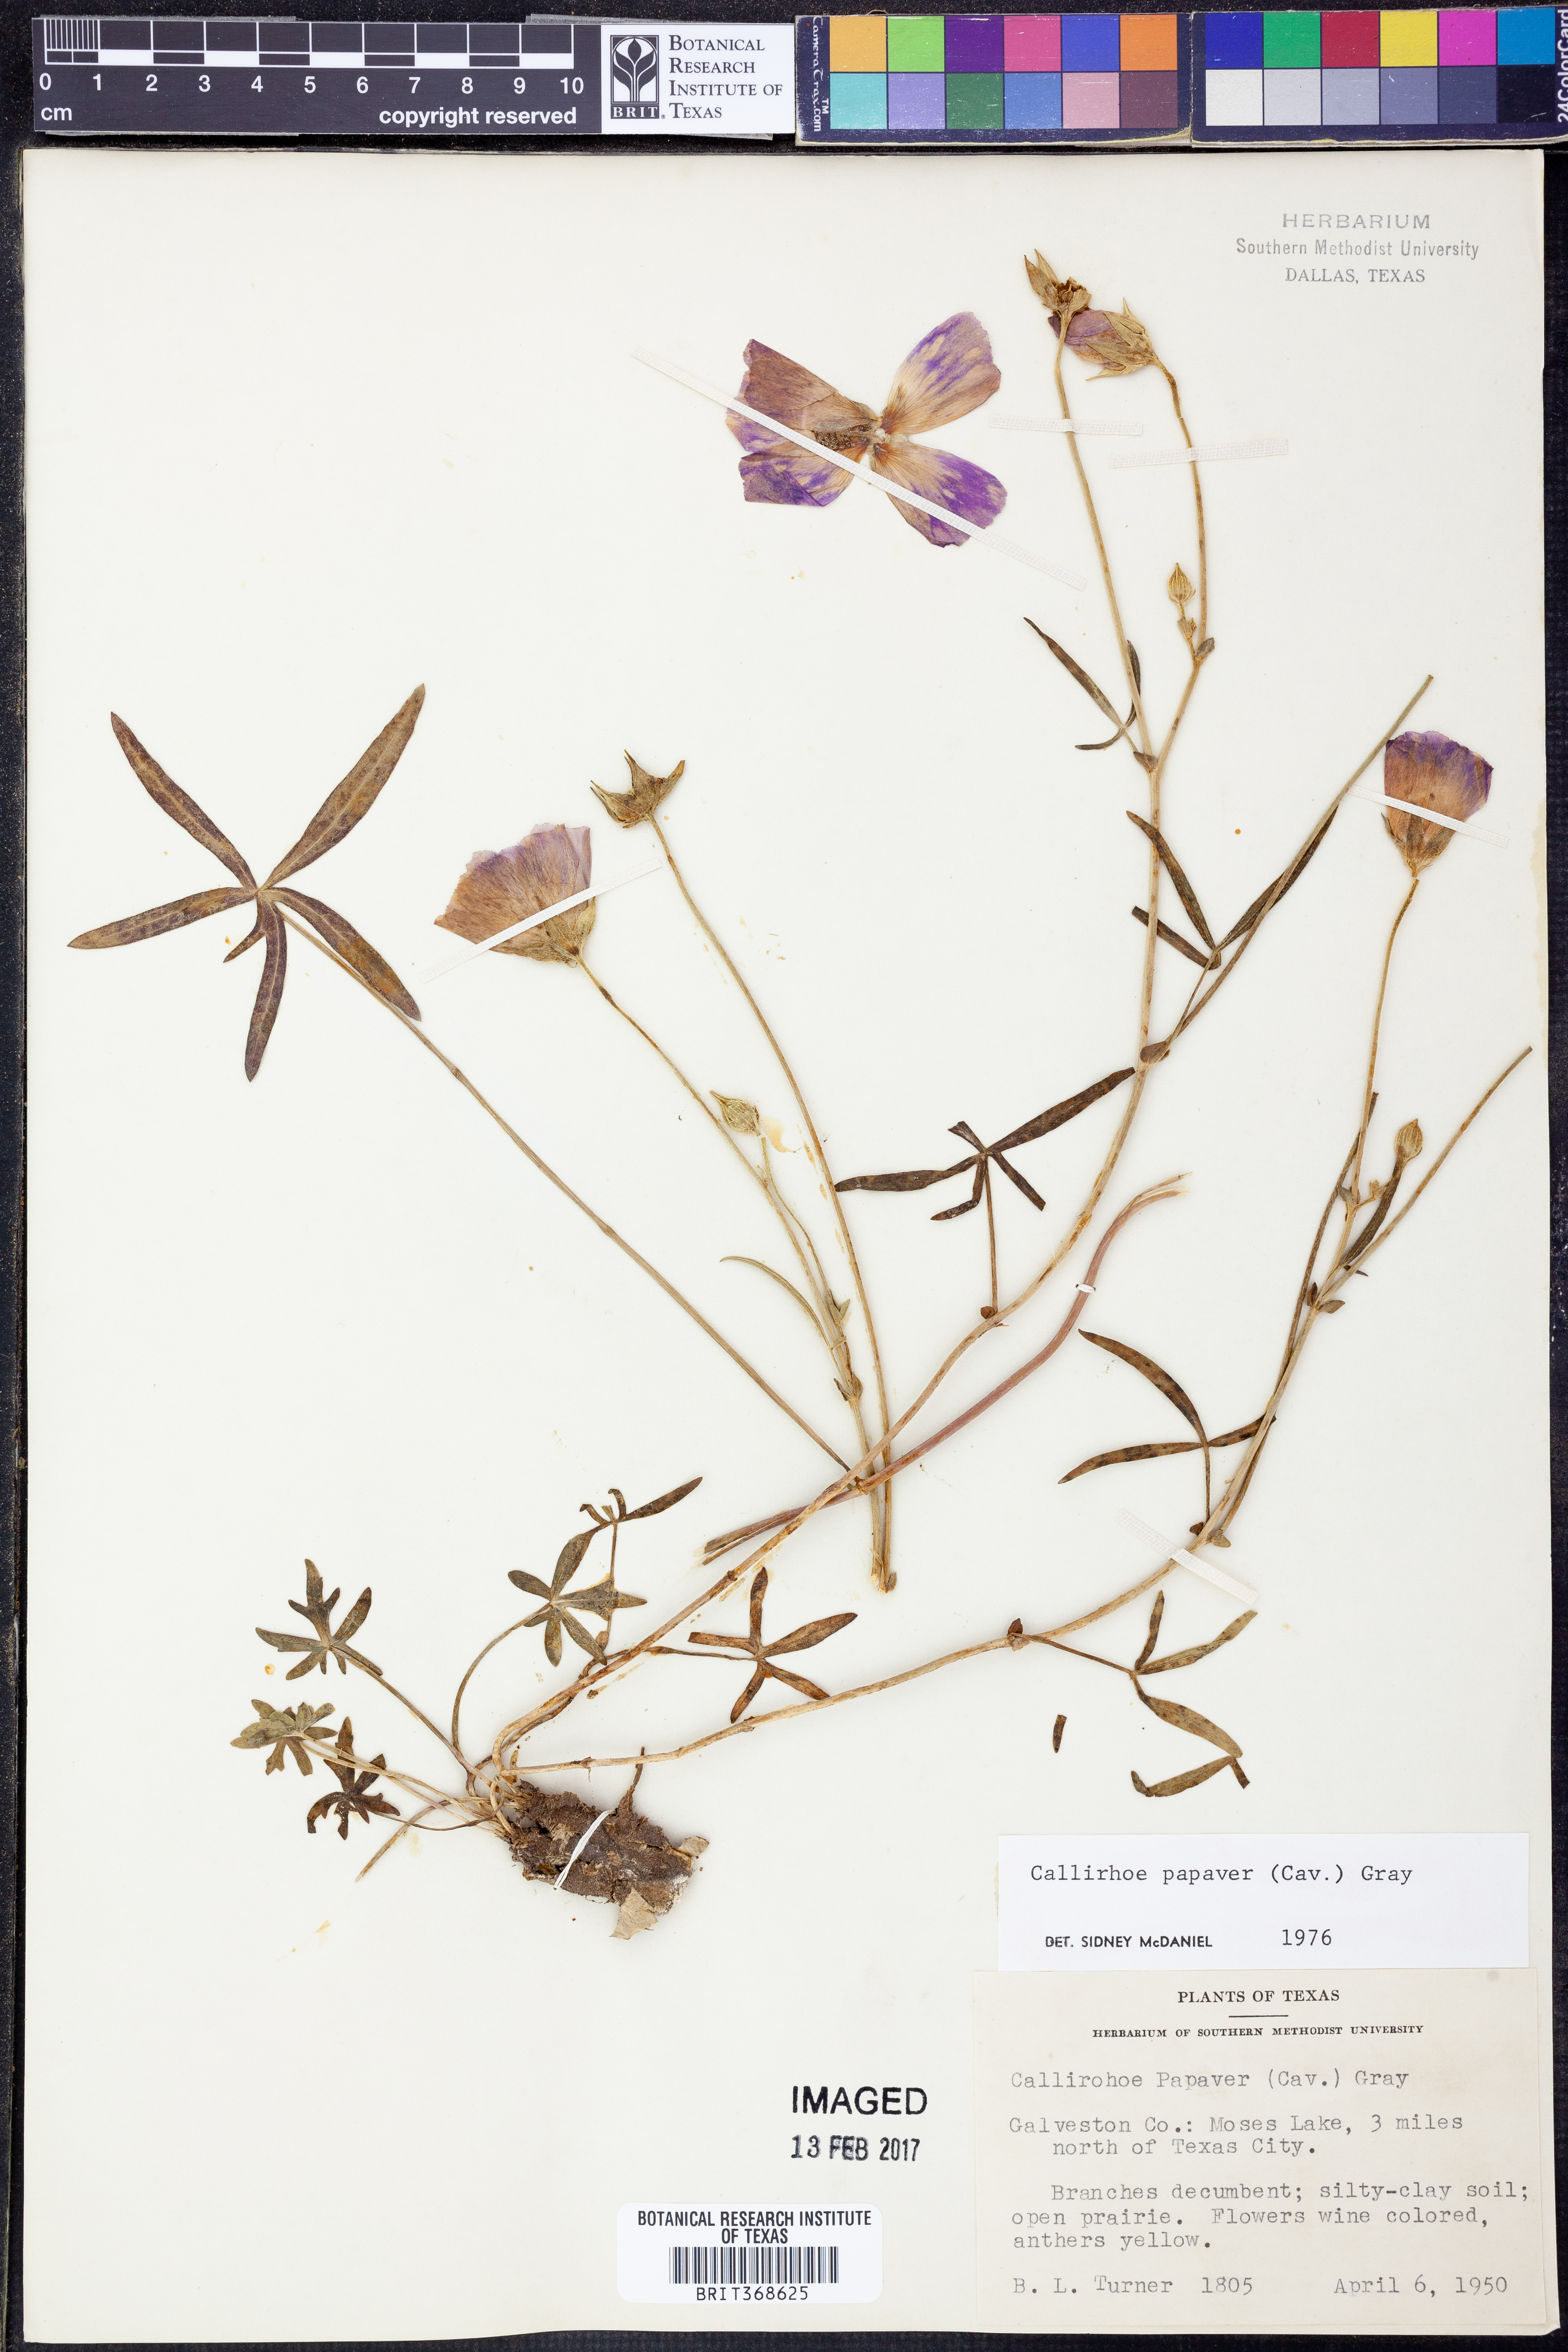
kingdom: Plantae
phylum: Tracheophyta
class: Magnoliopsida
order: Malvales
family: Malvaceae
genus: Callirhoe
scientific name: Callirhoe papaver
